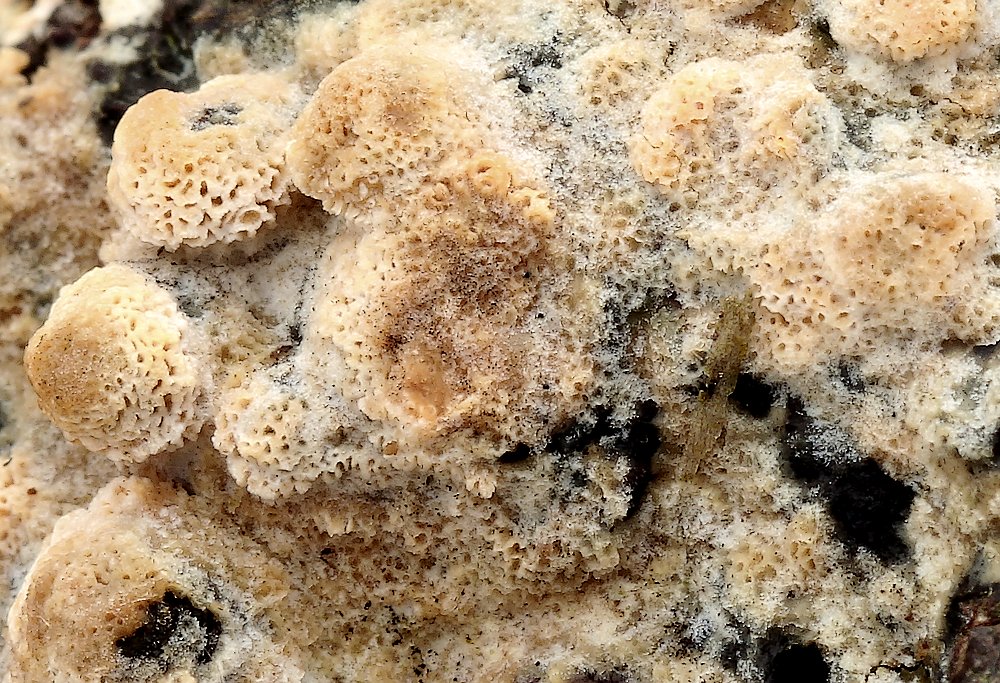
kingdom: Fungi
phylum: Basidiomycota
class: Agaricomycetes
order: Polyporales
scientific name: Polyporales
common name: poresvampordenen
